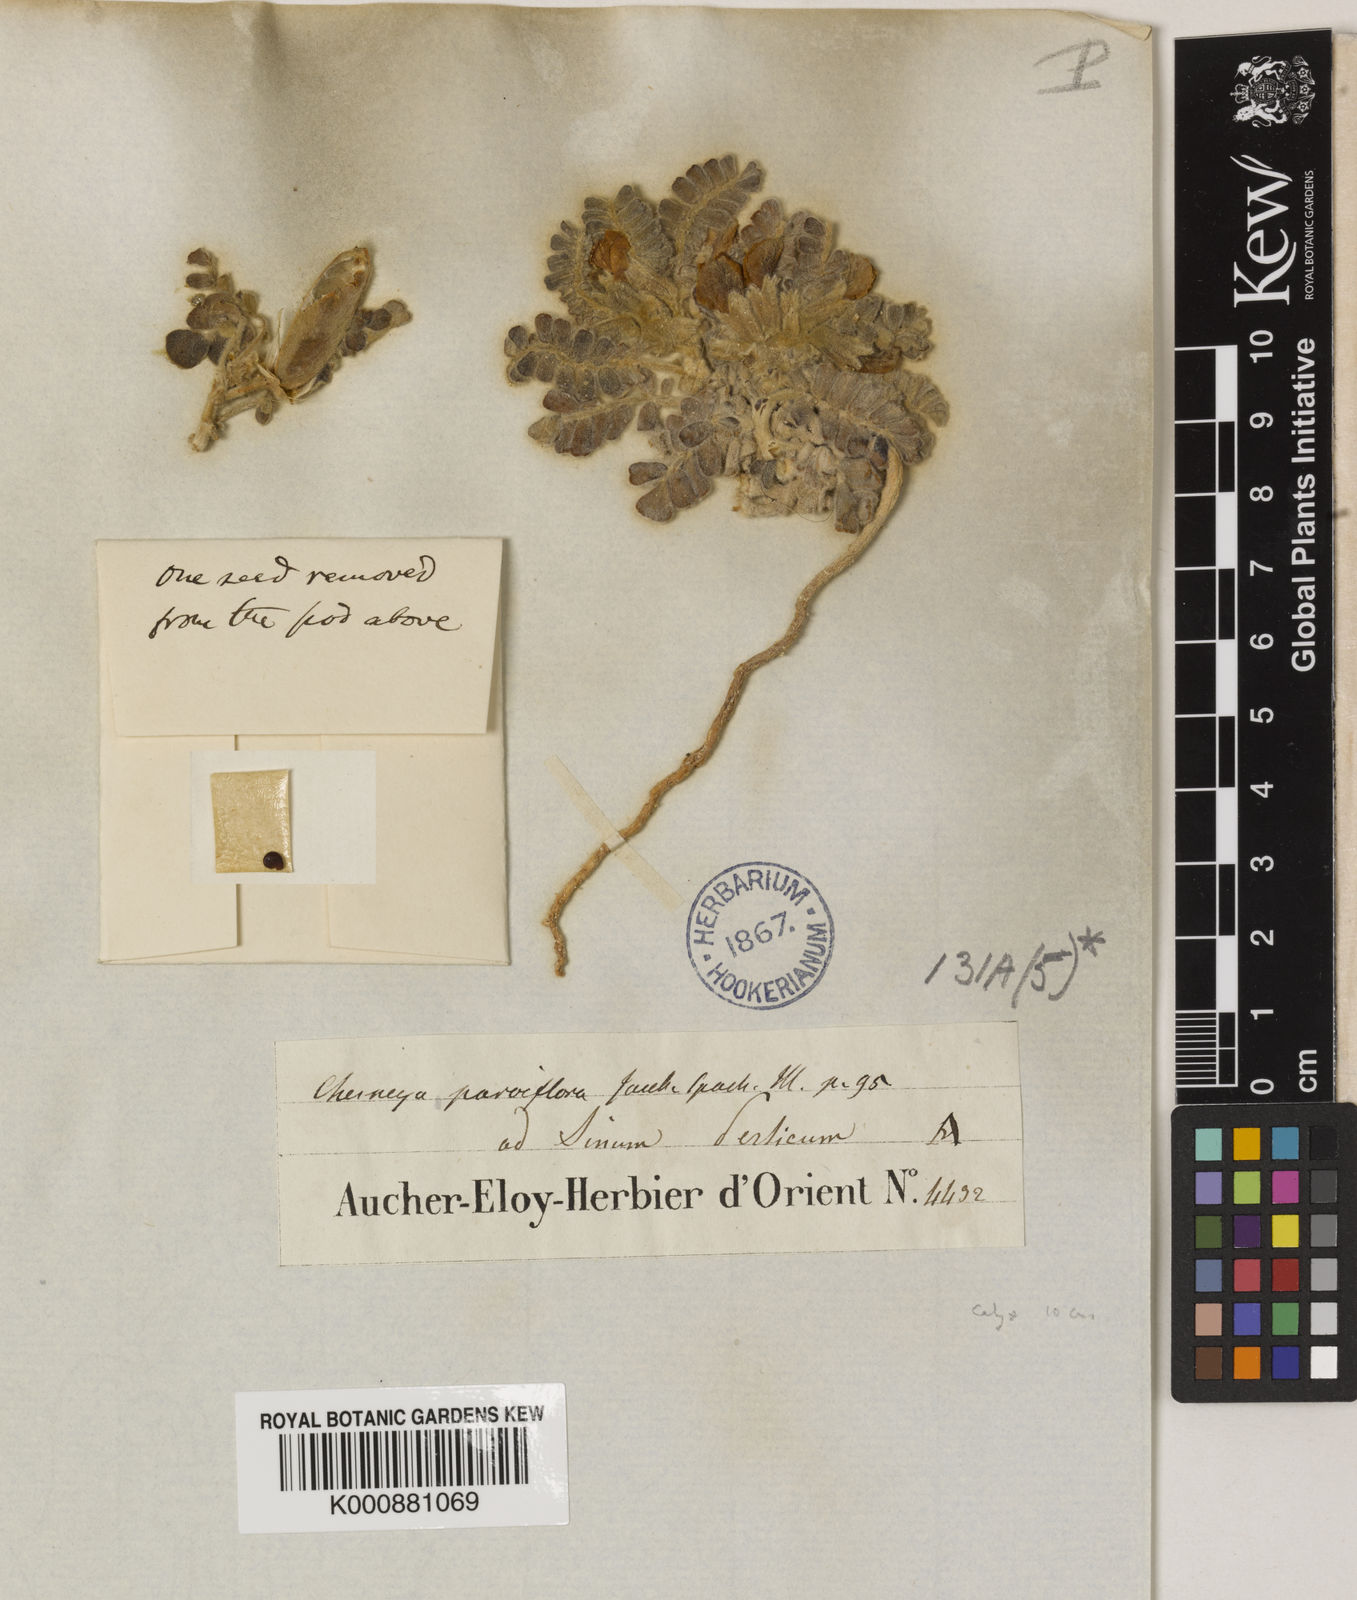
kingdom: Plantae
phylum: Tracheophyta
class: Magnoliopsida
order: Fabales
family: Fabaceae
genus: Chesneya
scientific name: Chesneya parviflora
